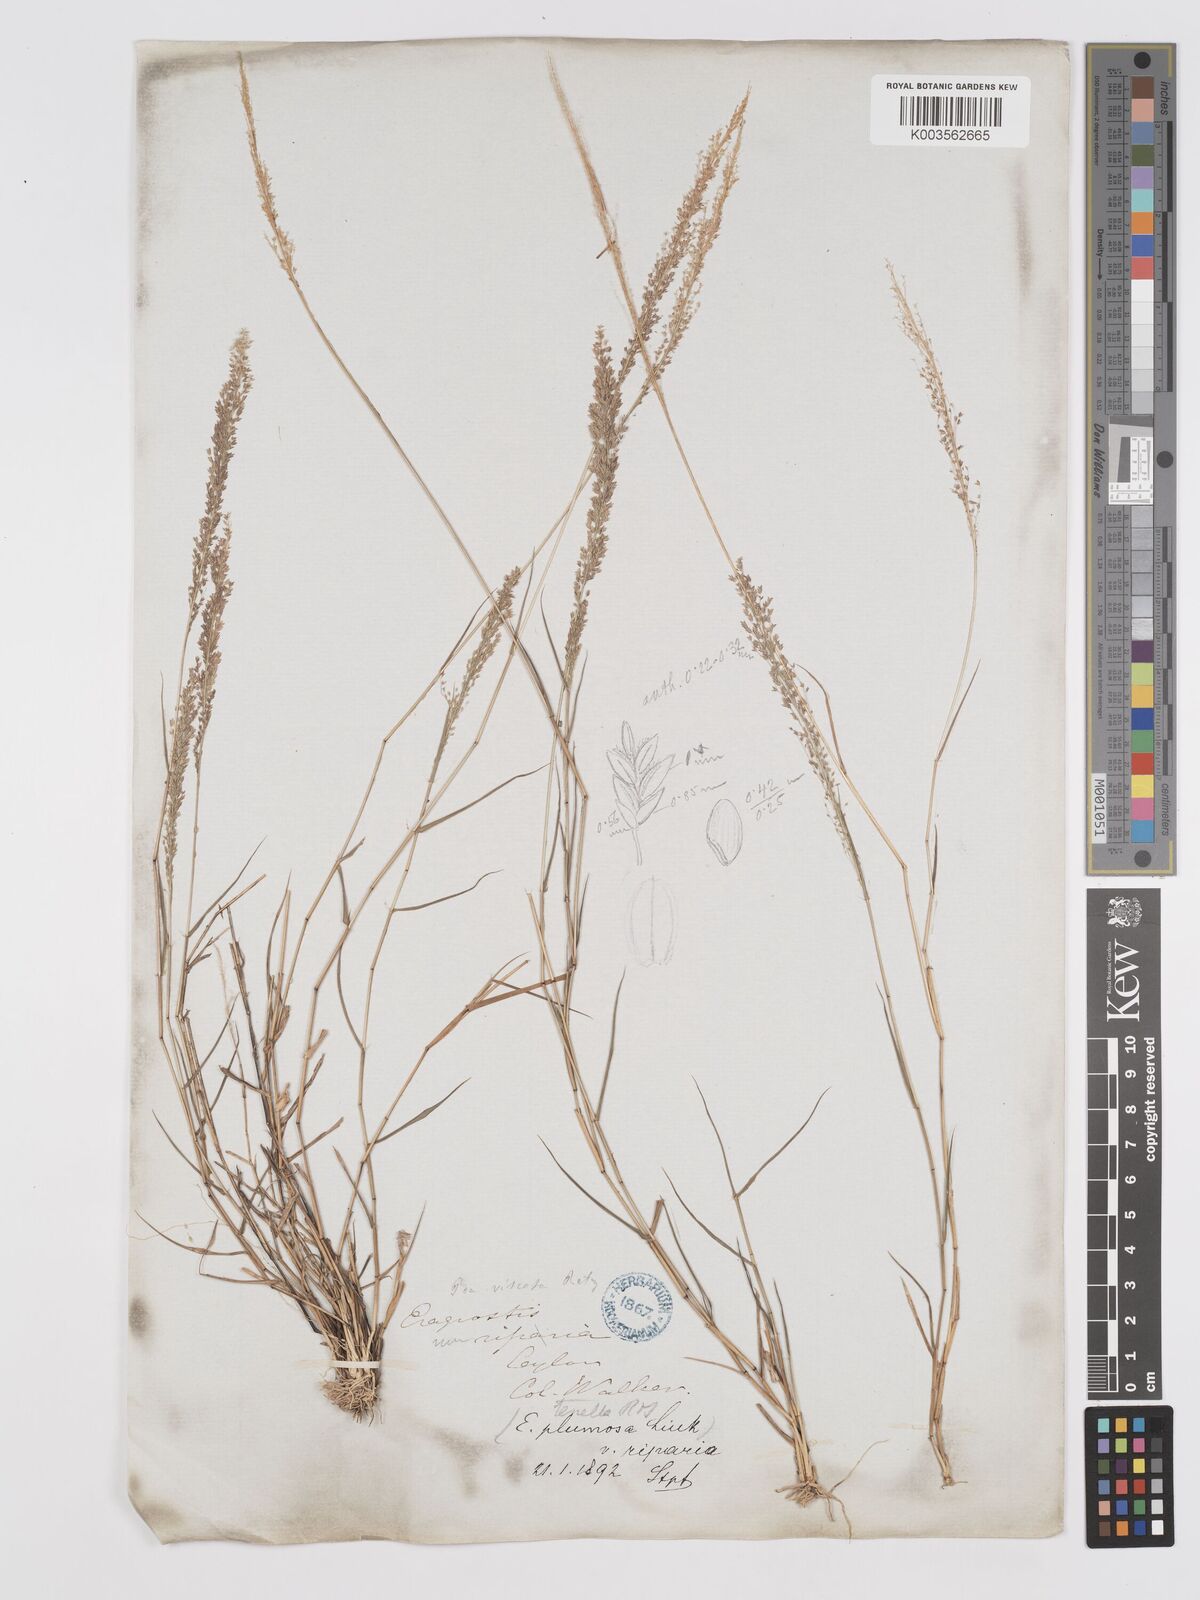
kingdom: Plantae
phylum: Tracheophyta
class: Liliopsida
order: Poales
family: Poaceae
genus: Eragrostis
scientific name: Eragrostis tenella
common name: Japanese lovegrass
